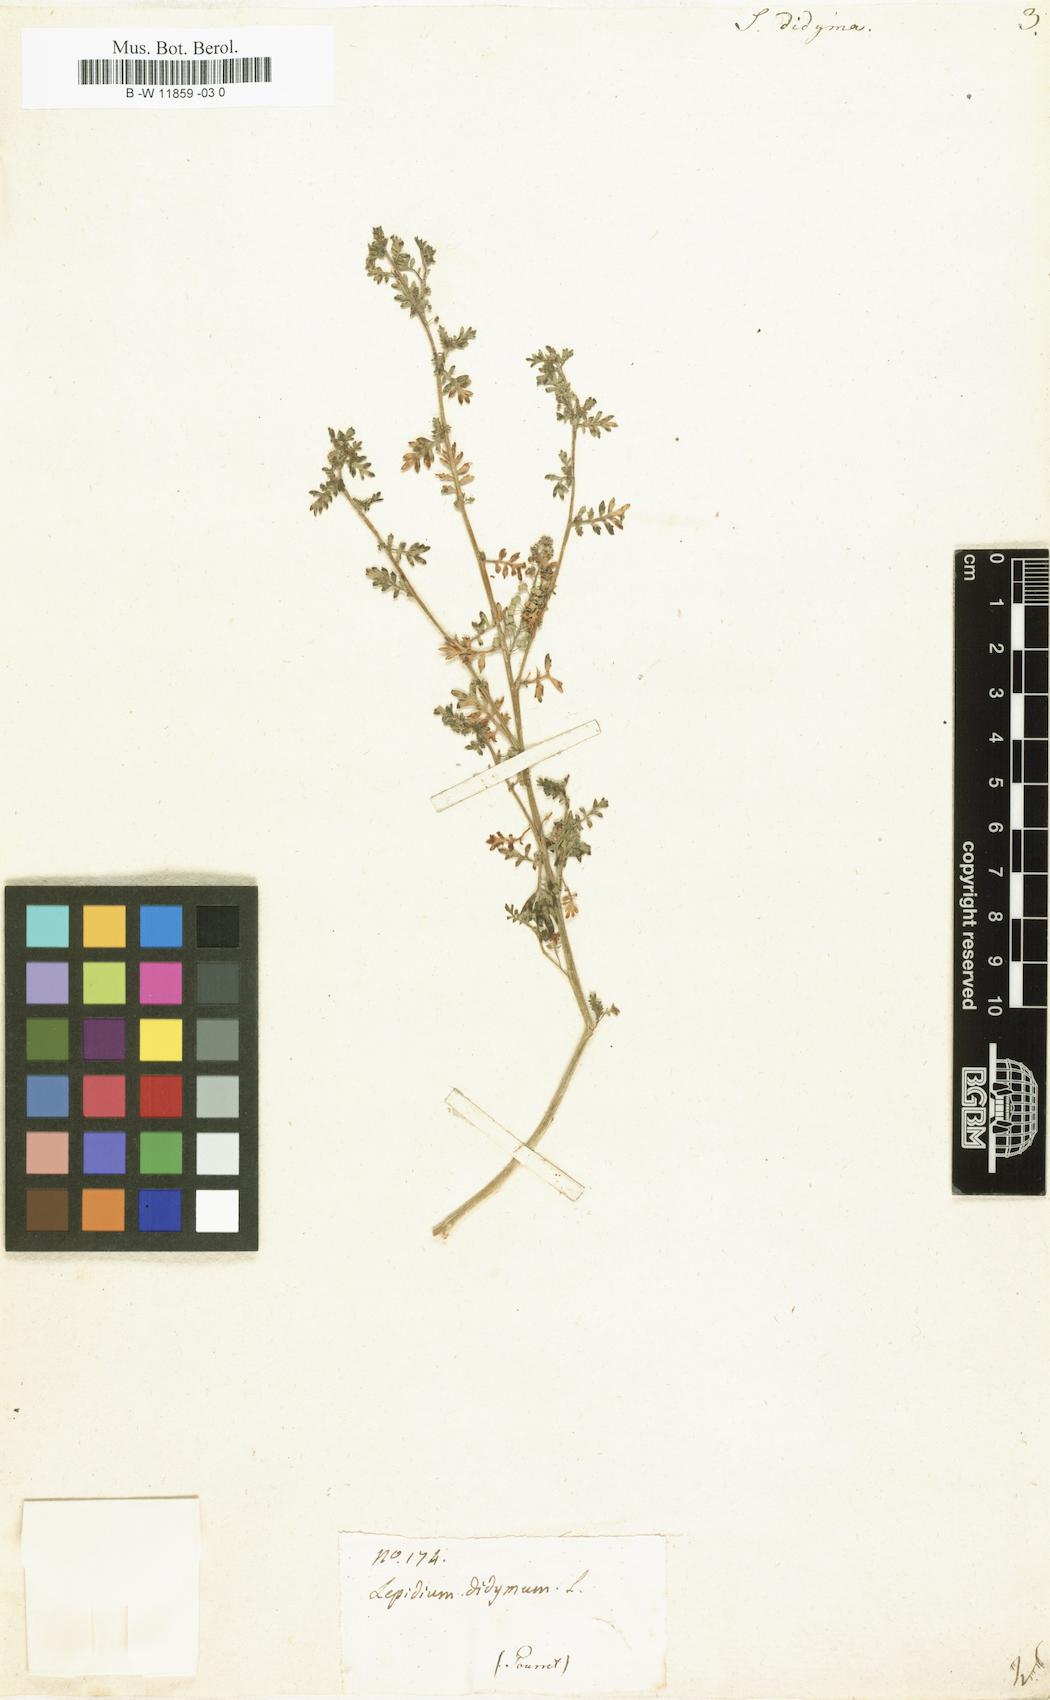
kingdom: Plantae
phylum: Tracheophyta
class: Magnoliopsida
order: Brassicales
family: Brassicaceae
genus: Lepidium
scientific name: Lepidium
